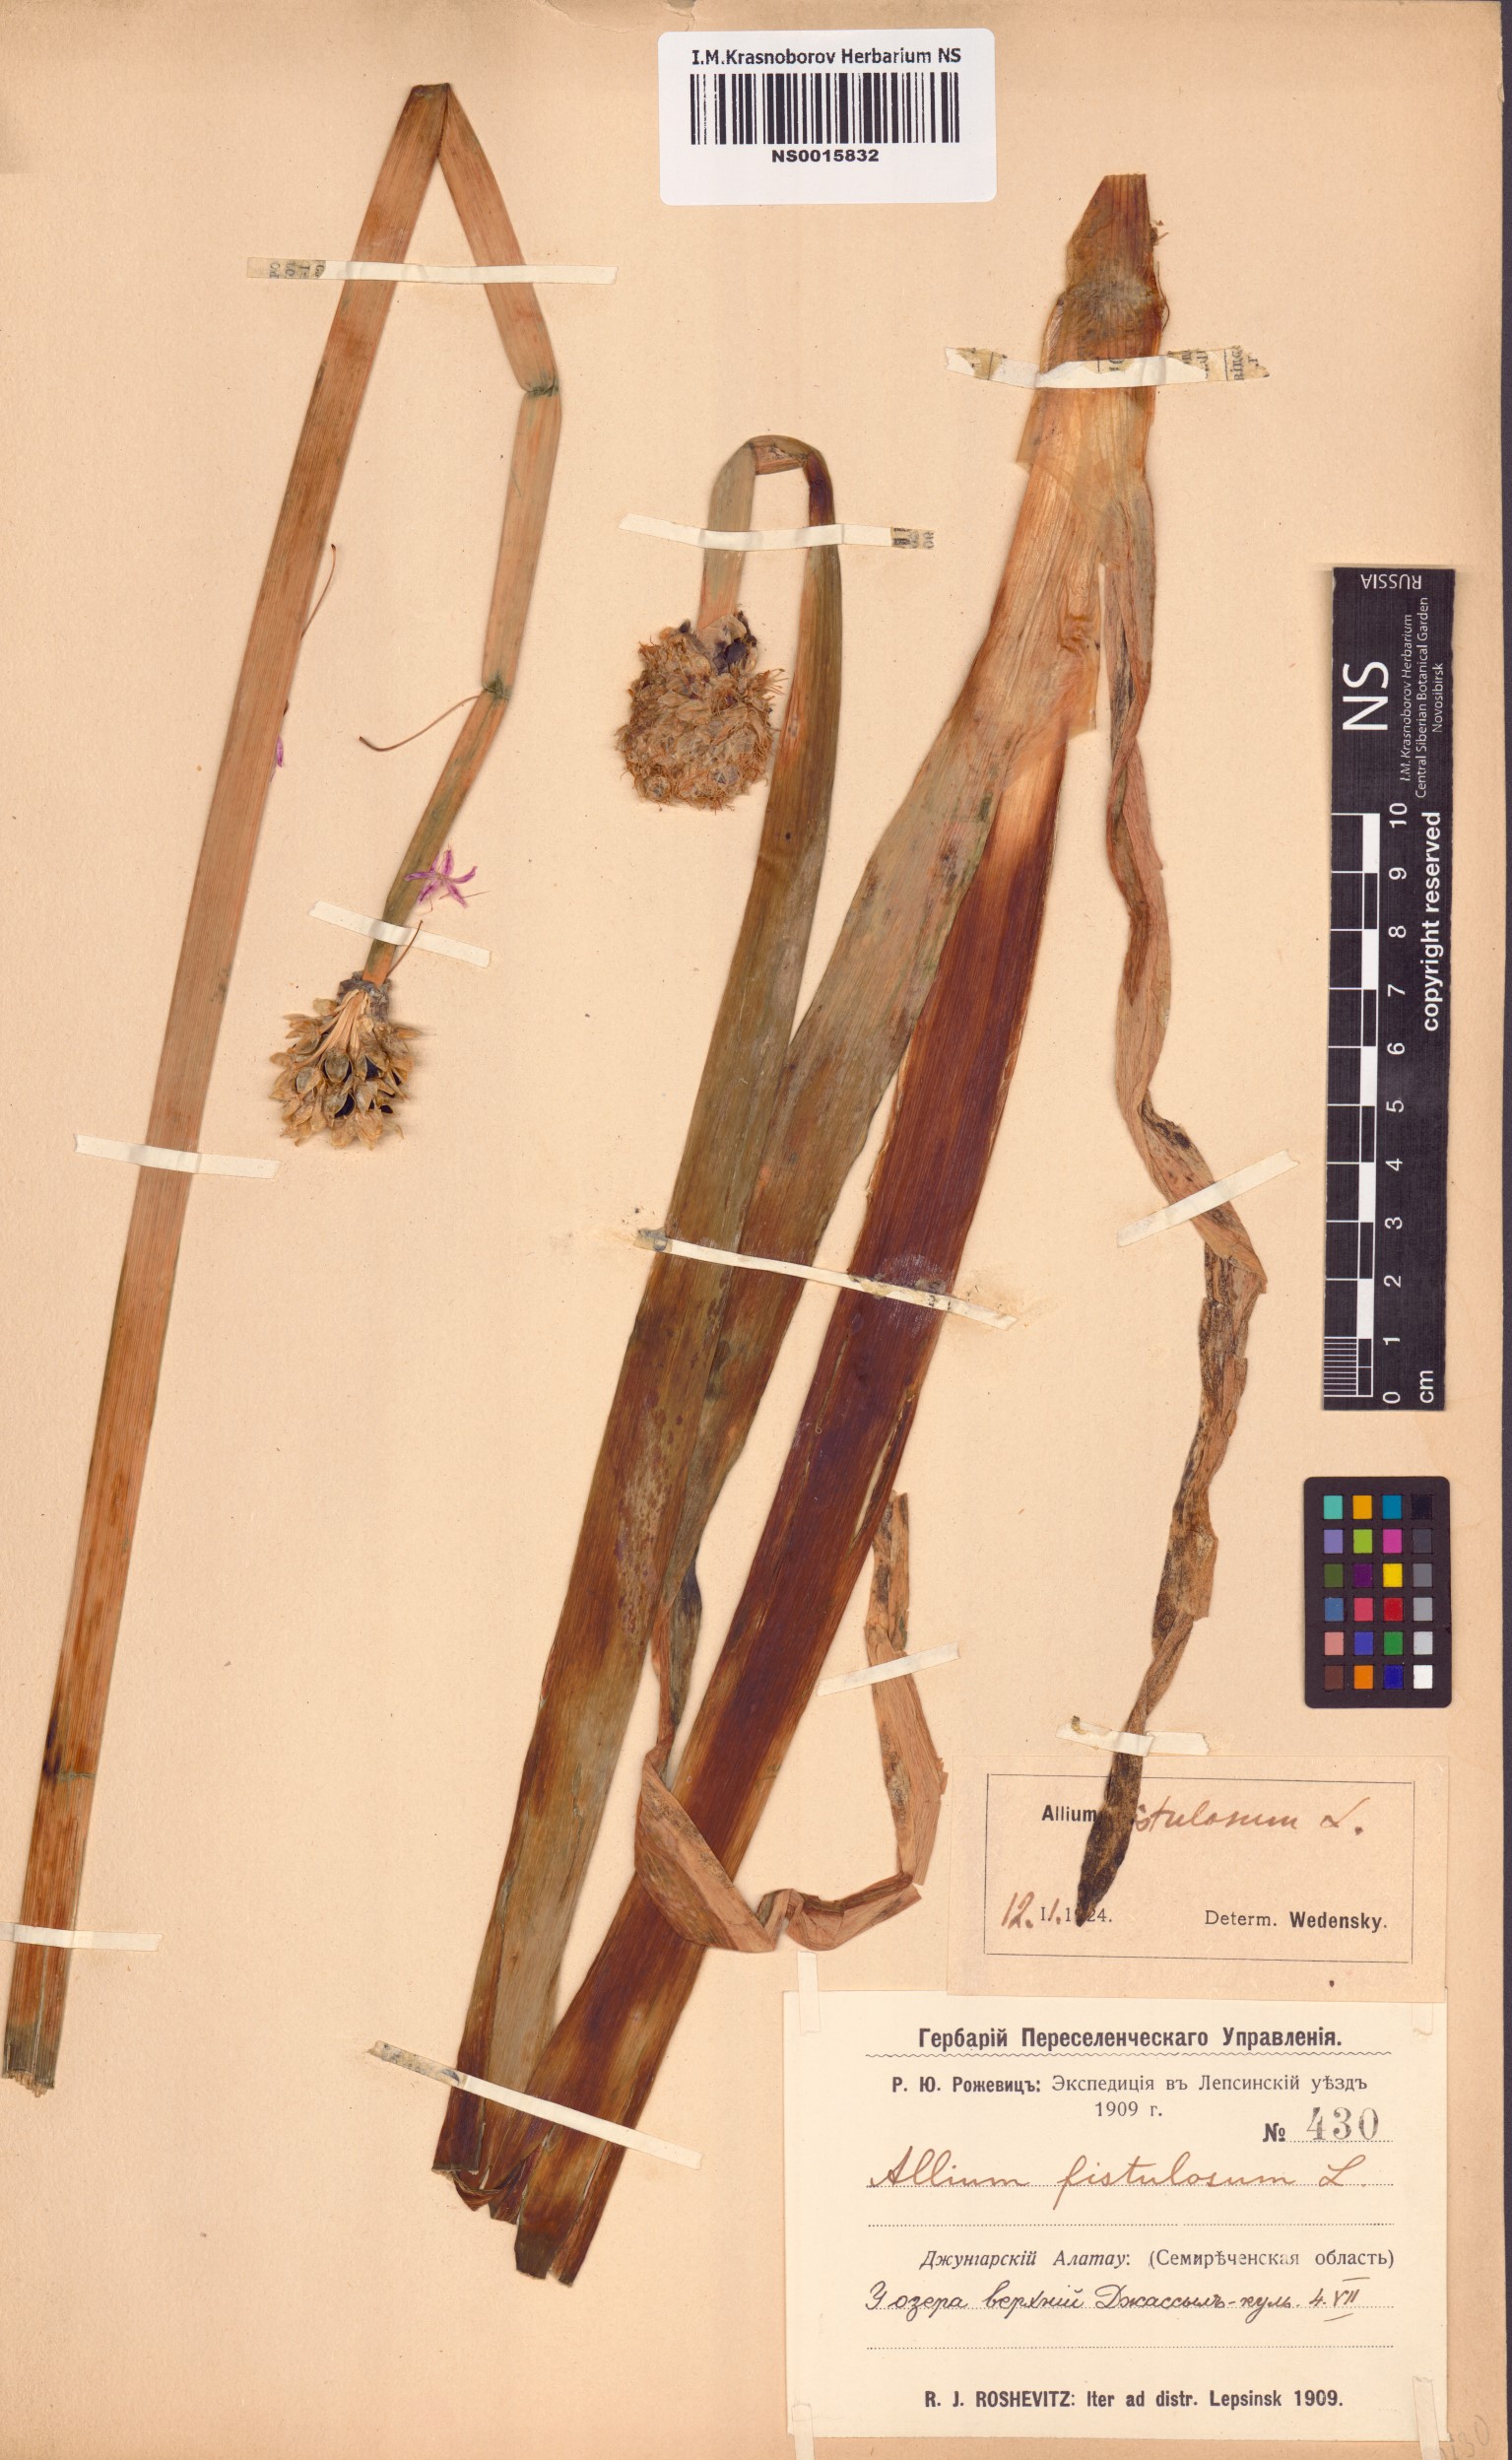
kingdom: Plantae
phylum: Tracheophyta
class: Liliopsida
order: Asparagales
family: Amaryllidaceae
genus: Allium
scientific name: Allium fistulosum
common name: Welsh onion
